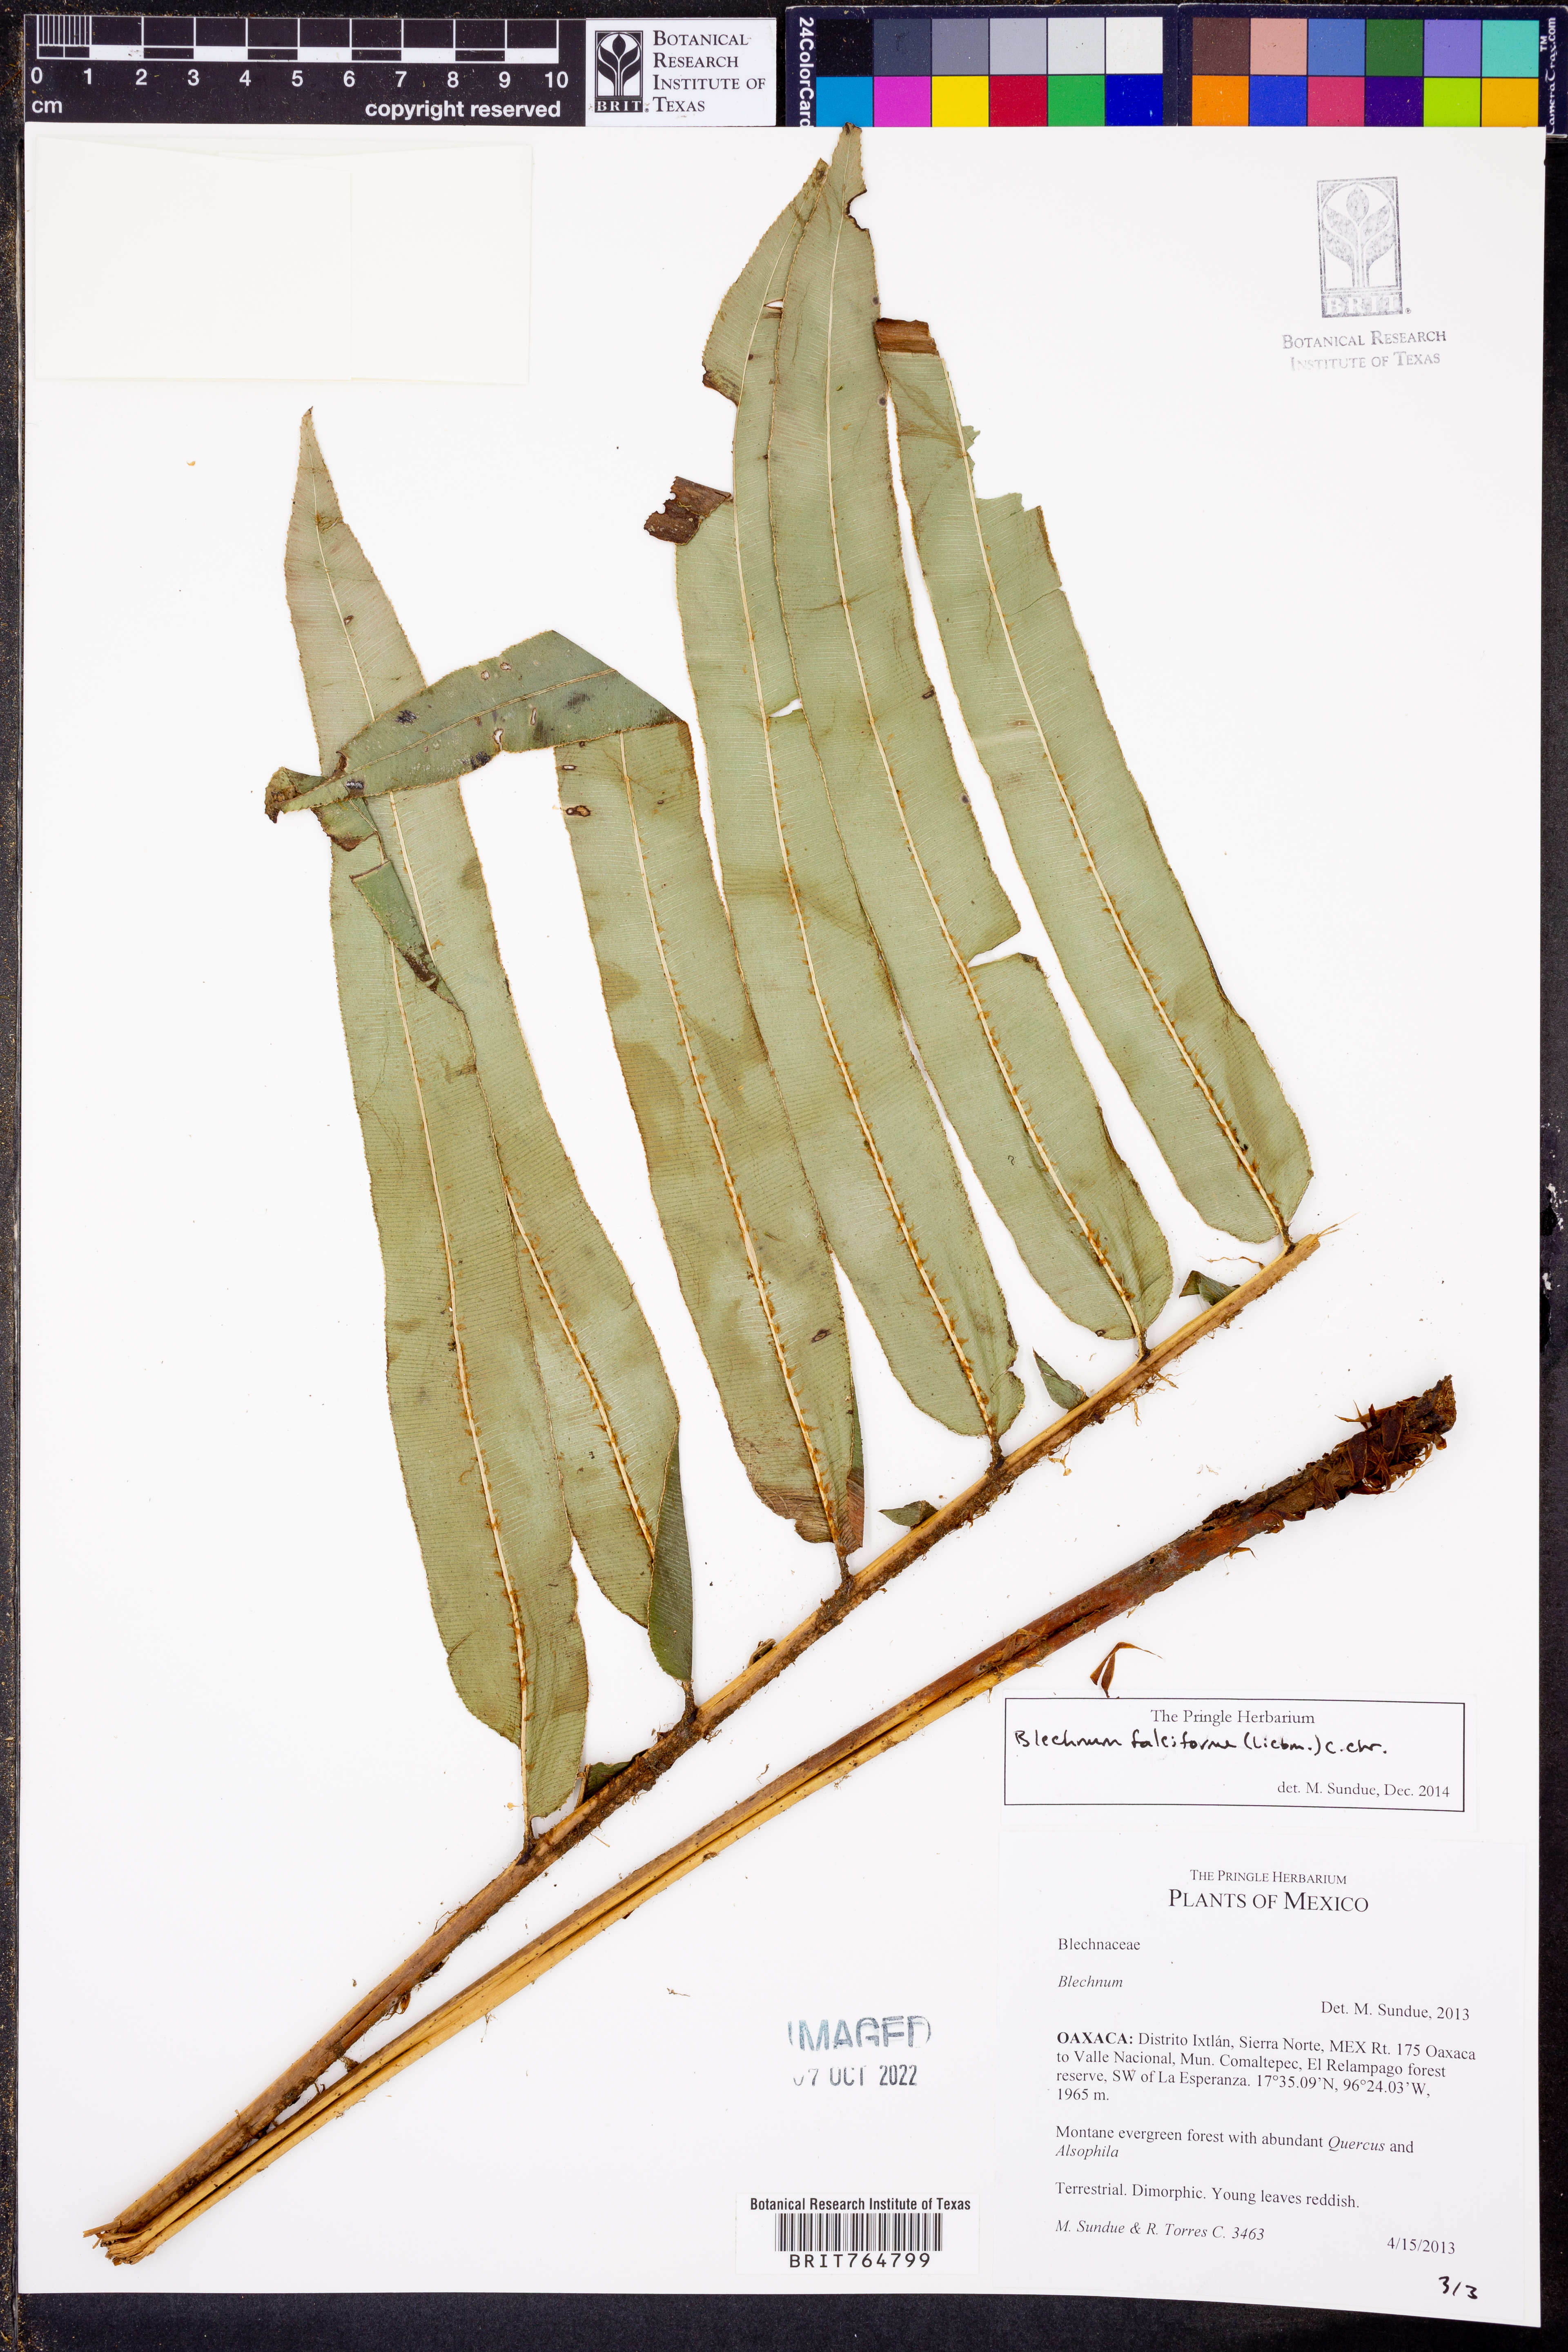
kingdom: Plantae
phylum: Tracheophyta
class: Polypodiopsida
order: Polypodiales
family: Blechnaceae
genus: Parablechnum
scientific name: Parablechnum falciforme
